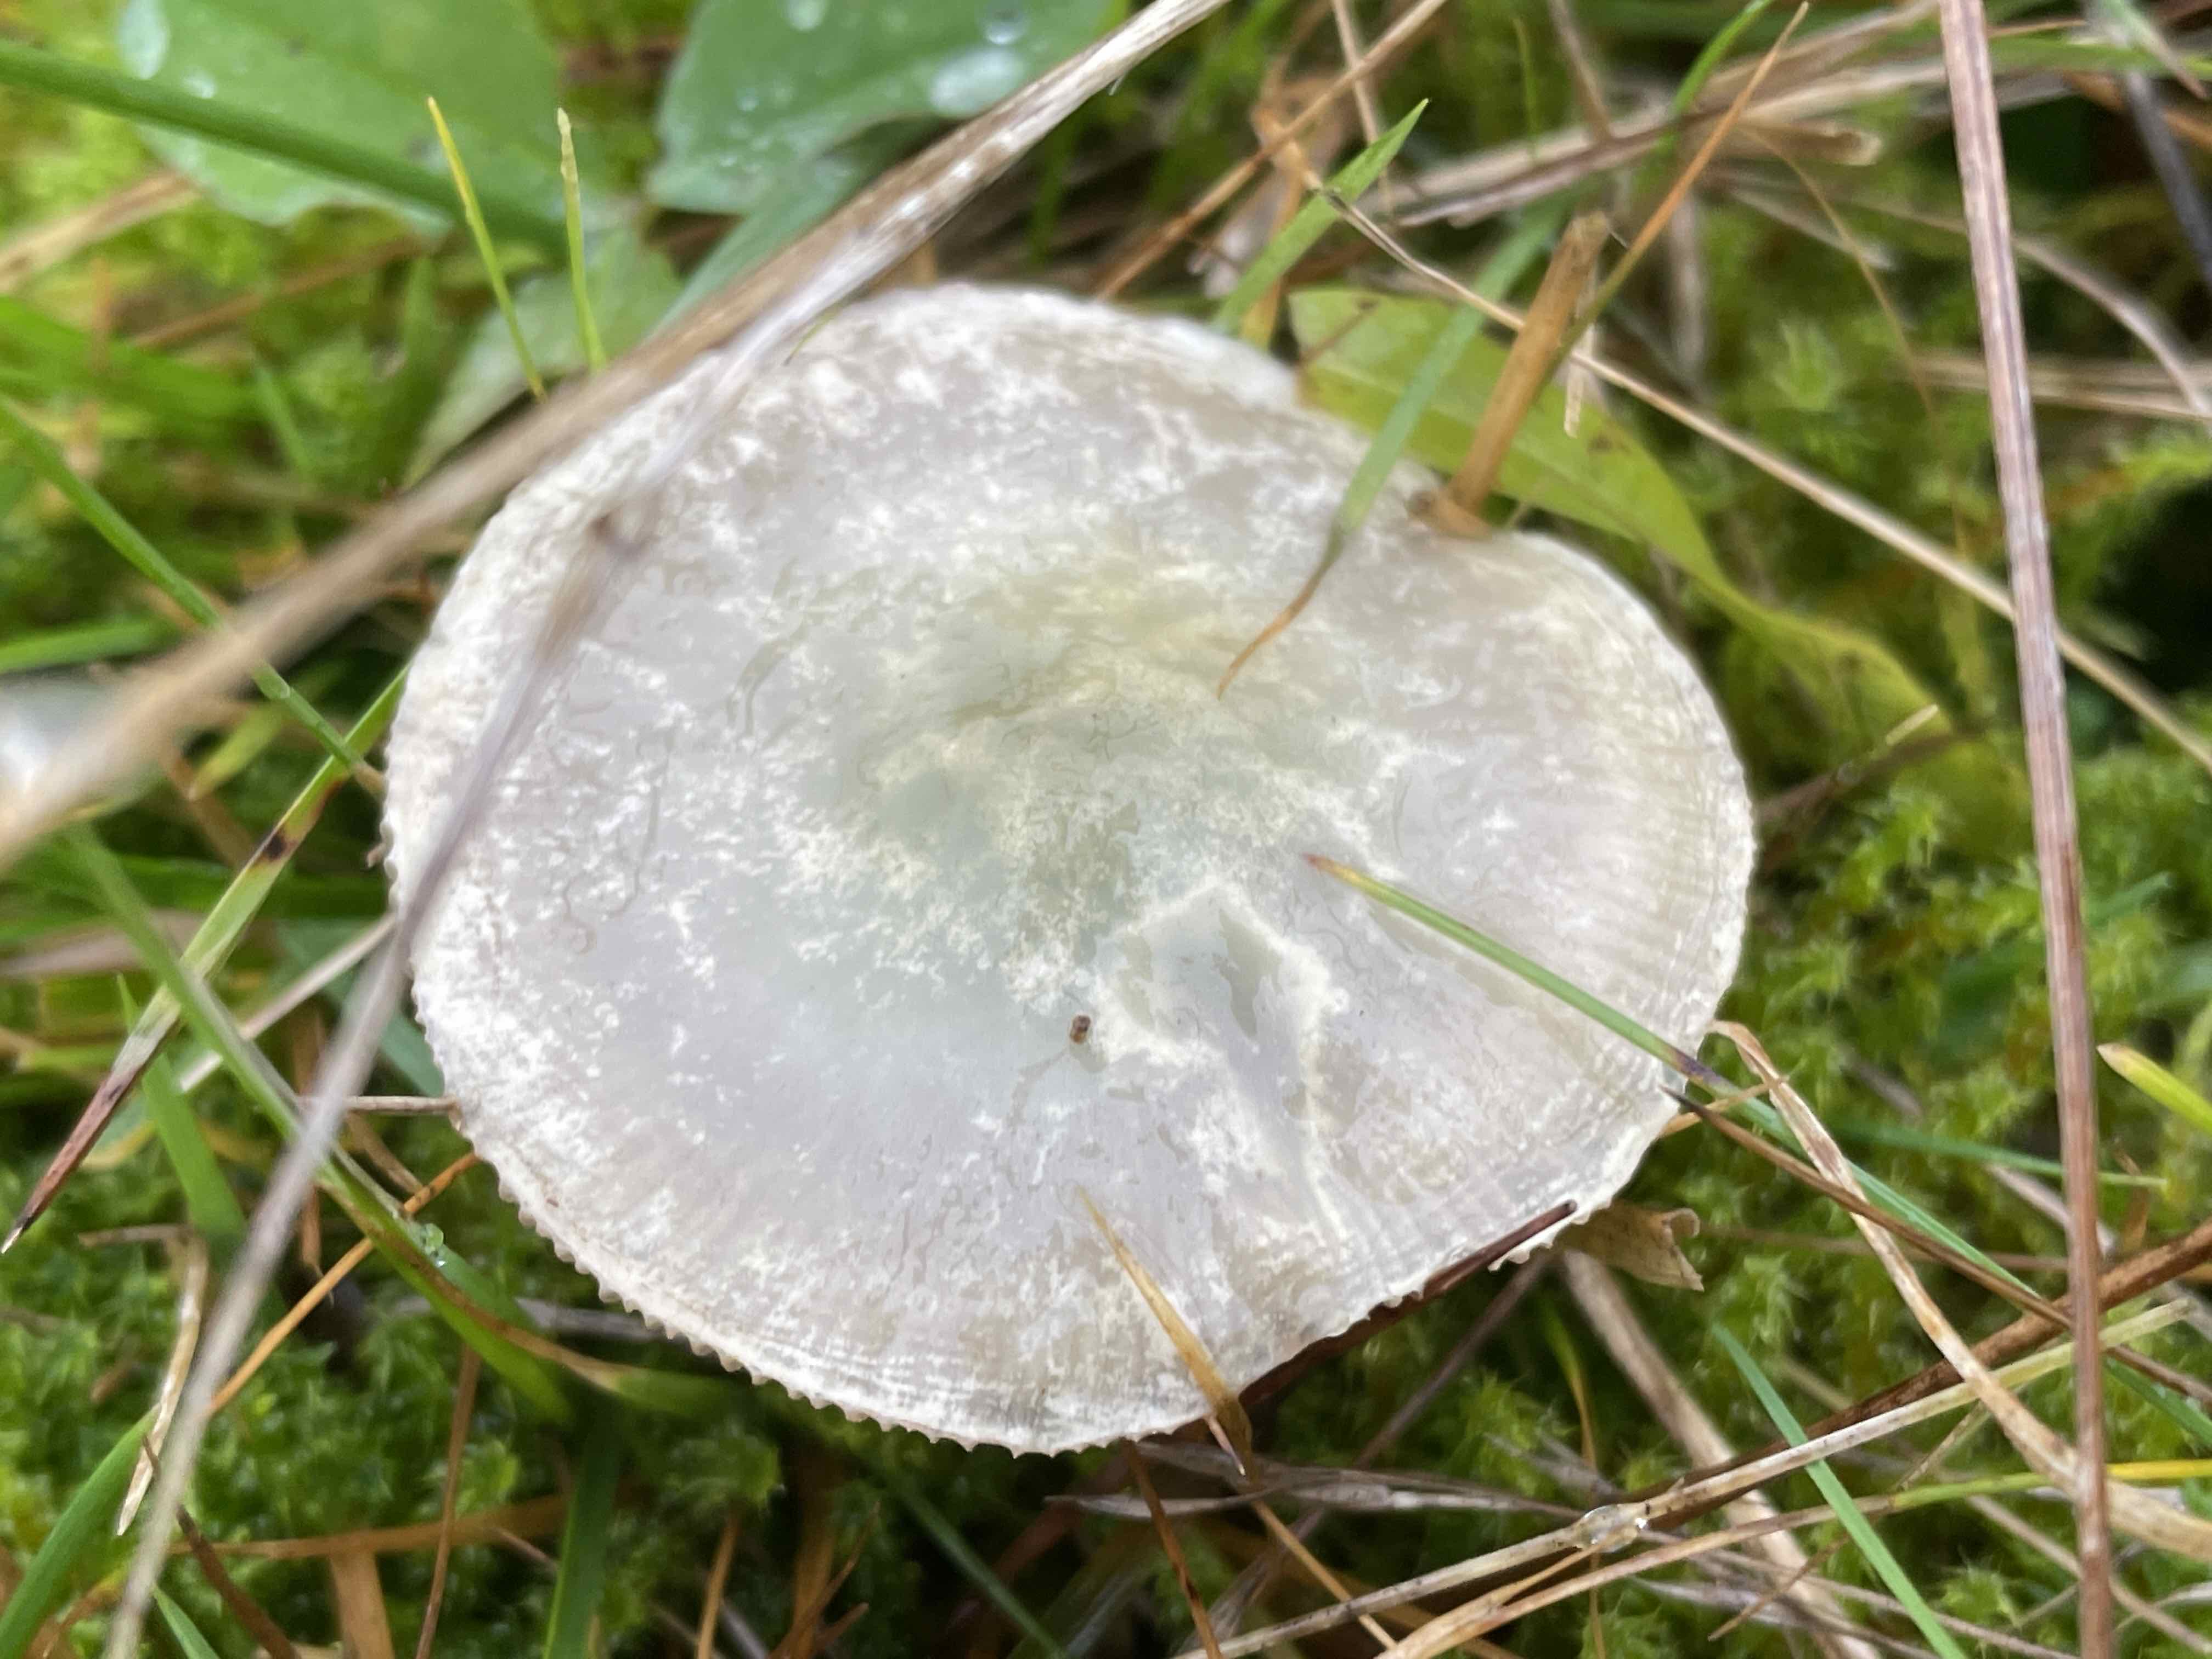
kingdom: Fungi
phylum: Basidiomycota
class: Agaricomycetes
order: Agaricales
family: Strophariaceae
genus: Stropharia
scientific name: Stropharia pseudocyanea
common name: blegblå bredblad
